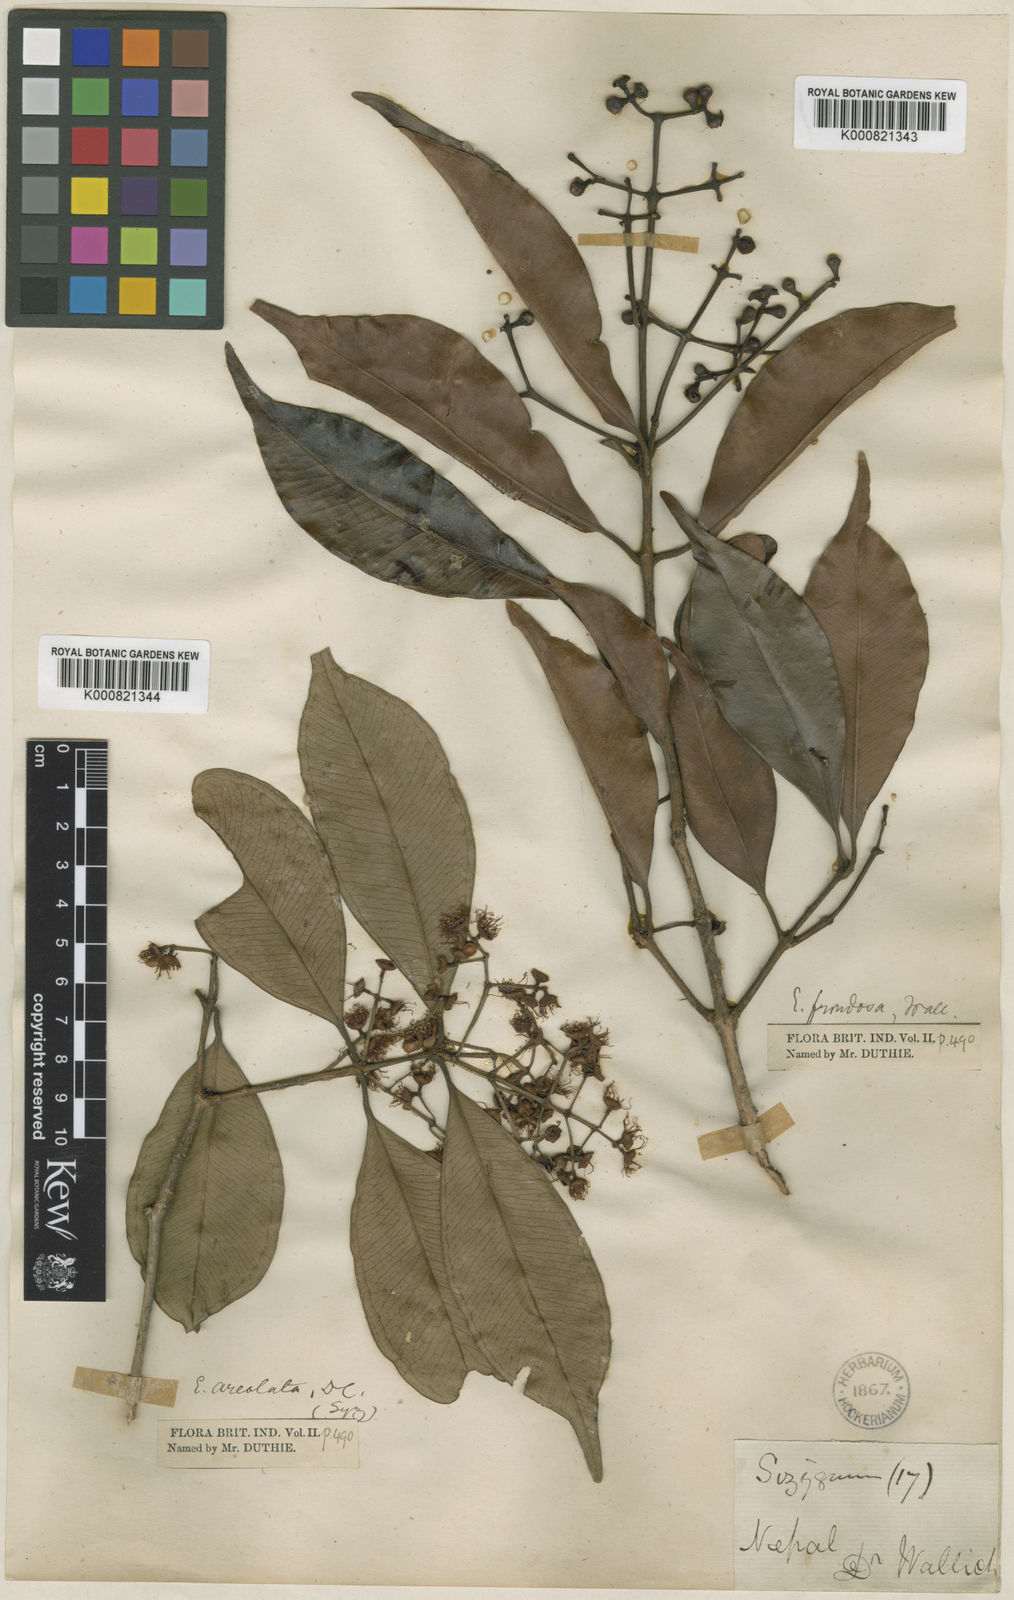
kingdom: Plantae
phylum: Tracheophyta
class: Magnoliopsida
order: Myrtales
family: Myrtaceae
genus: Syzygium
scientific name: Syzygium
